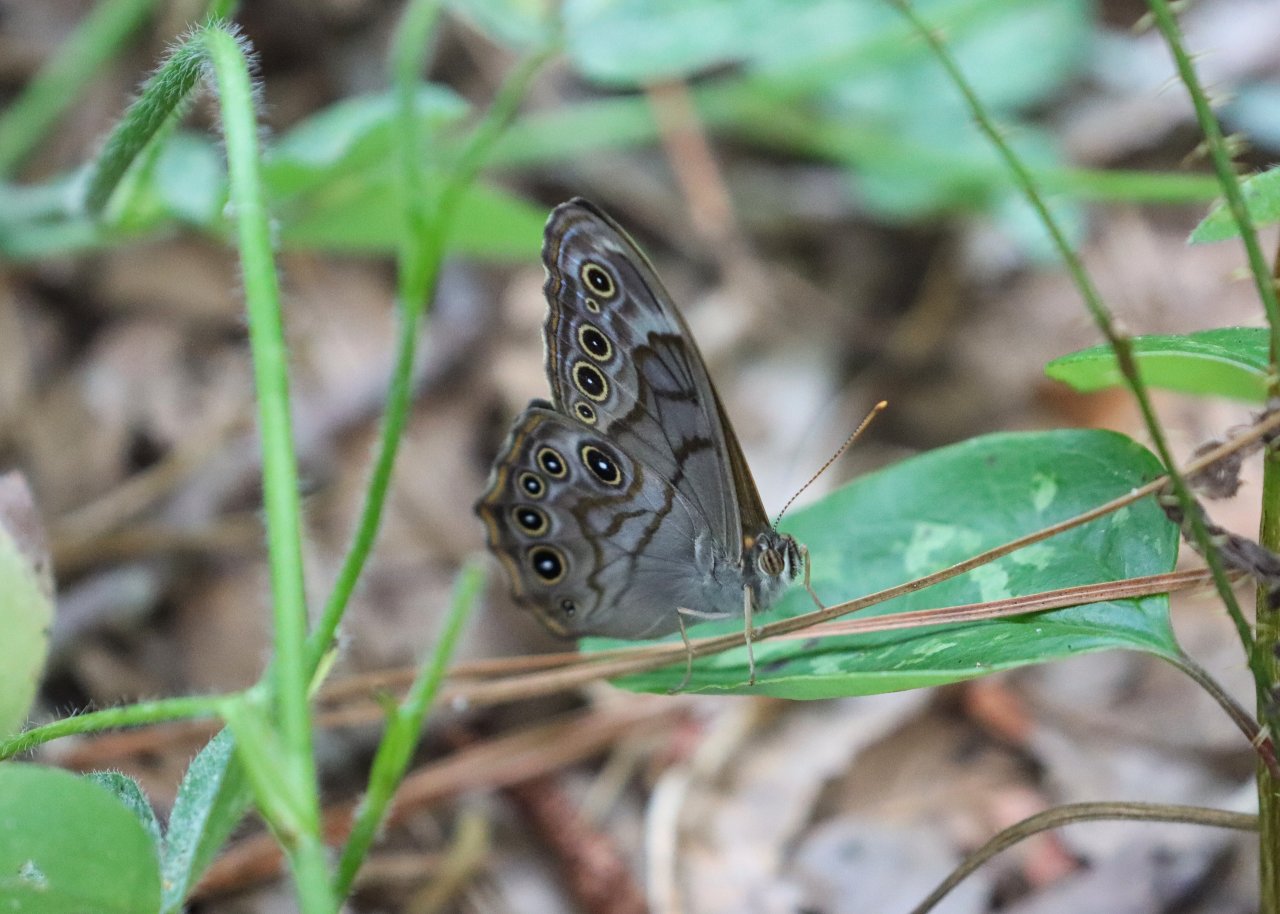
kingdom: Animalia
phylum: Arthropoda
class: Insecta
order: Lepidoptera
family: Nymphalidae
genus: Lethe
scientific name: Lethe creola
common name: Creole Pearly-Eye
